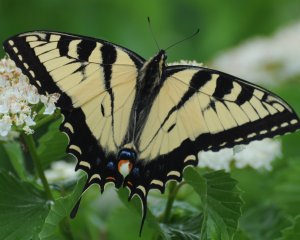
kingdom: Animalia
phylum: Arthropoda
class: Insecta
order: Lepidoptera
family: Papilionidae
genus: Pterourus
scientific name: Pterourus glaucus
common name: Eastern Tiger Swallowtail
